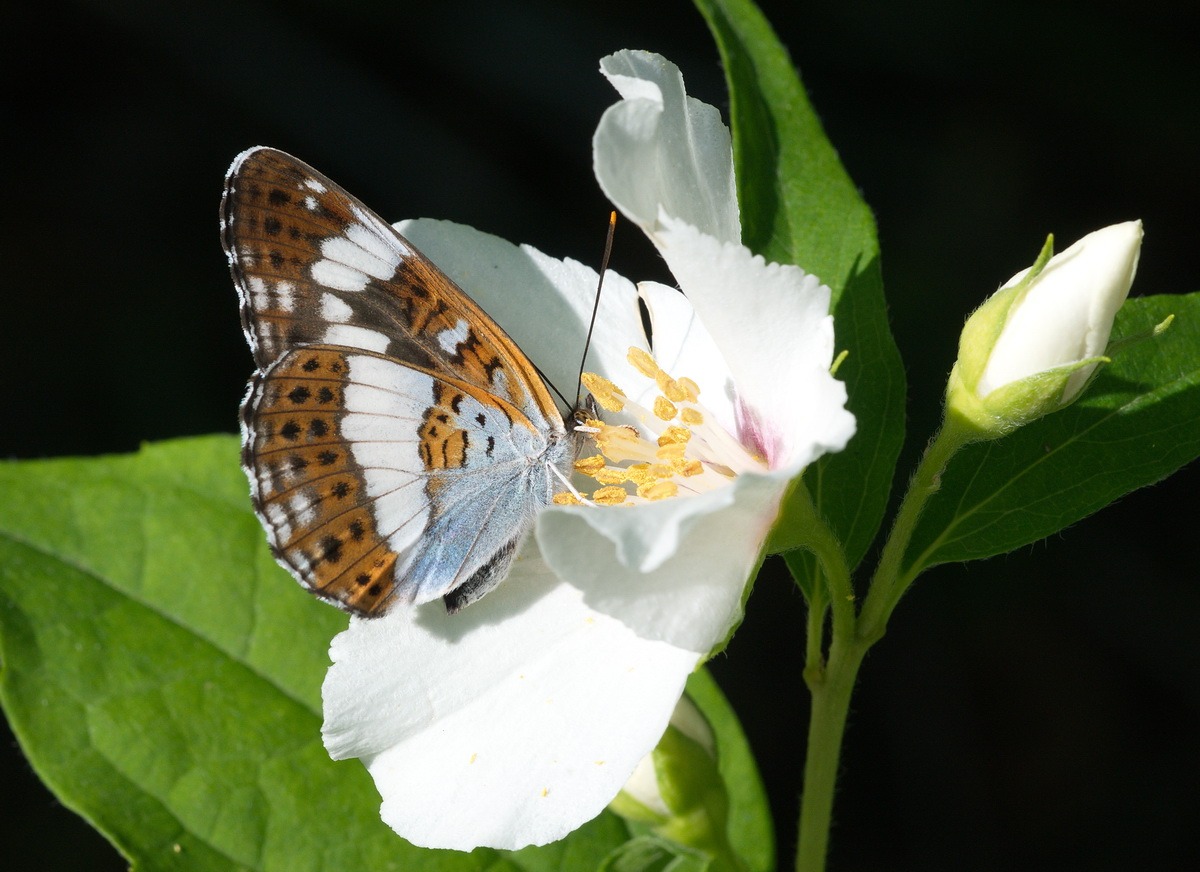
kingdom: Animalia
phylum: Arthropoda
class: Insecta
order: Lepidoptera
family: Nymphalidae
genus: Ladoga
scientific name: Ladoga camilla
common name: Hvid admiral
